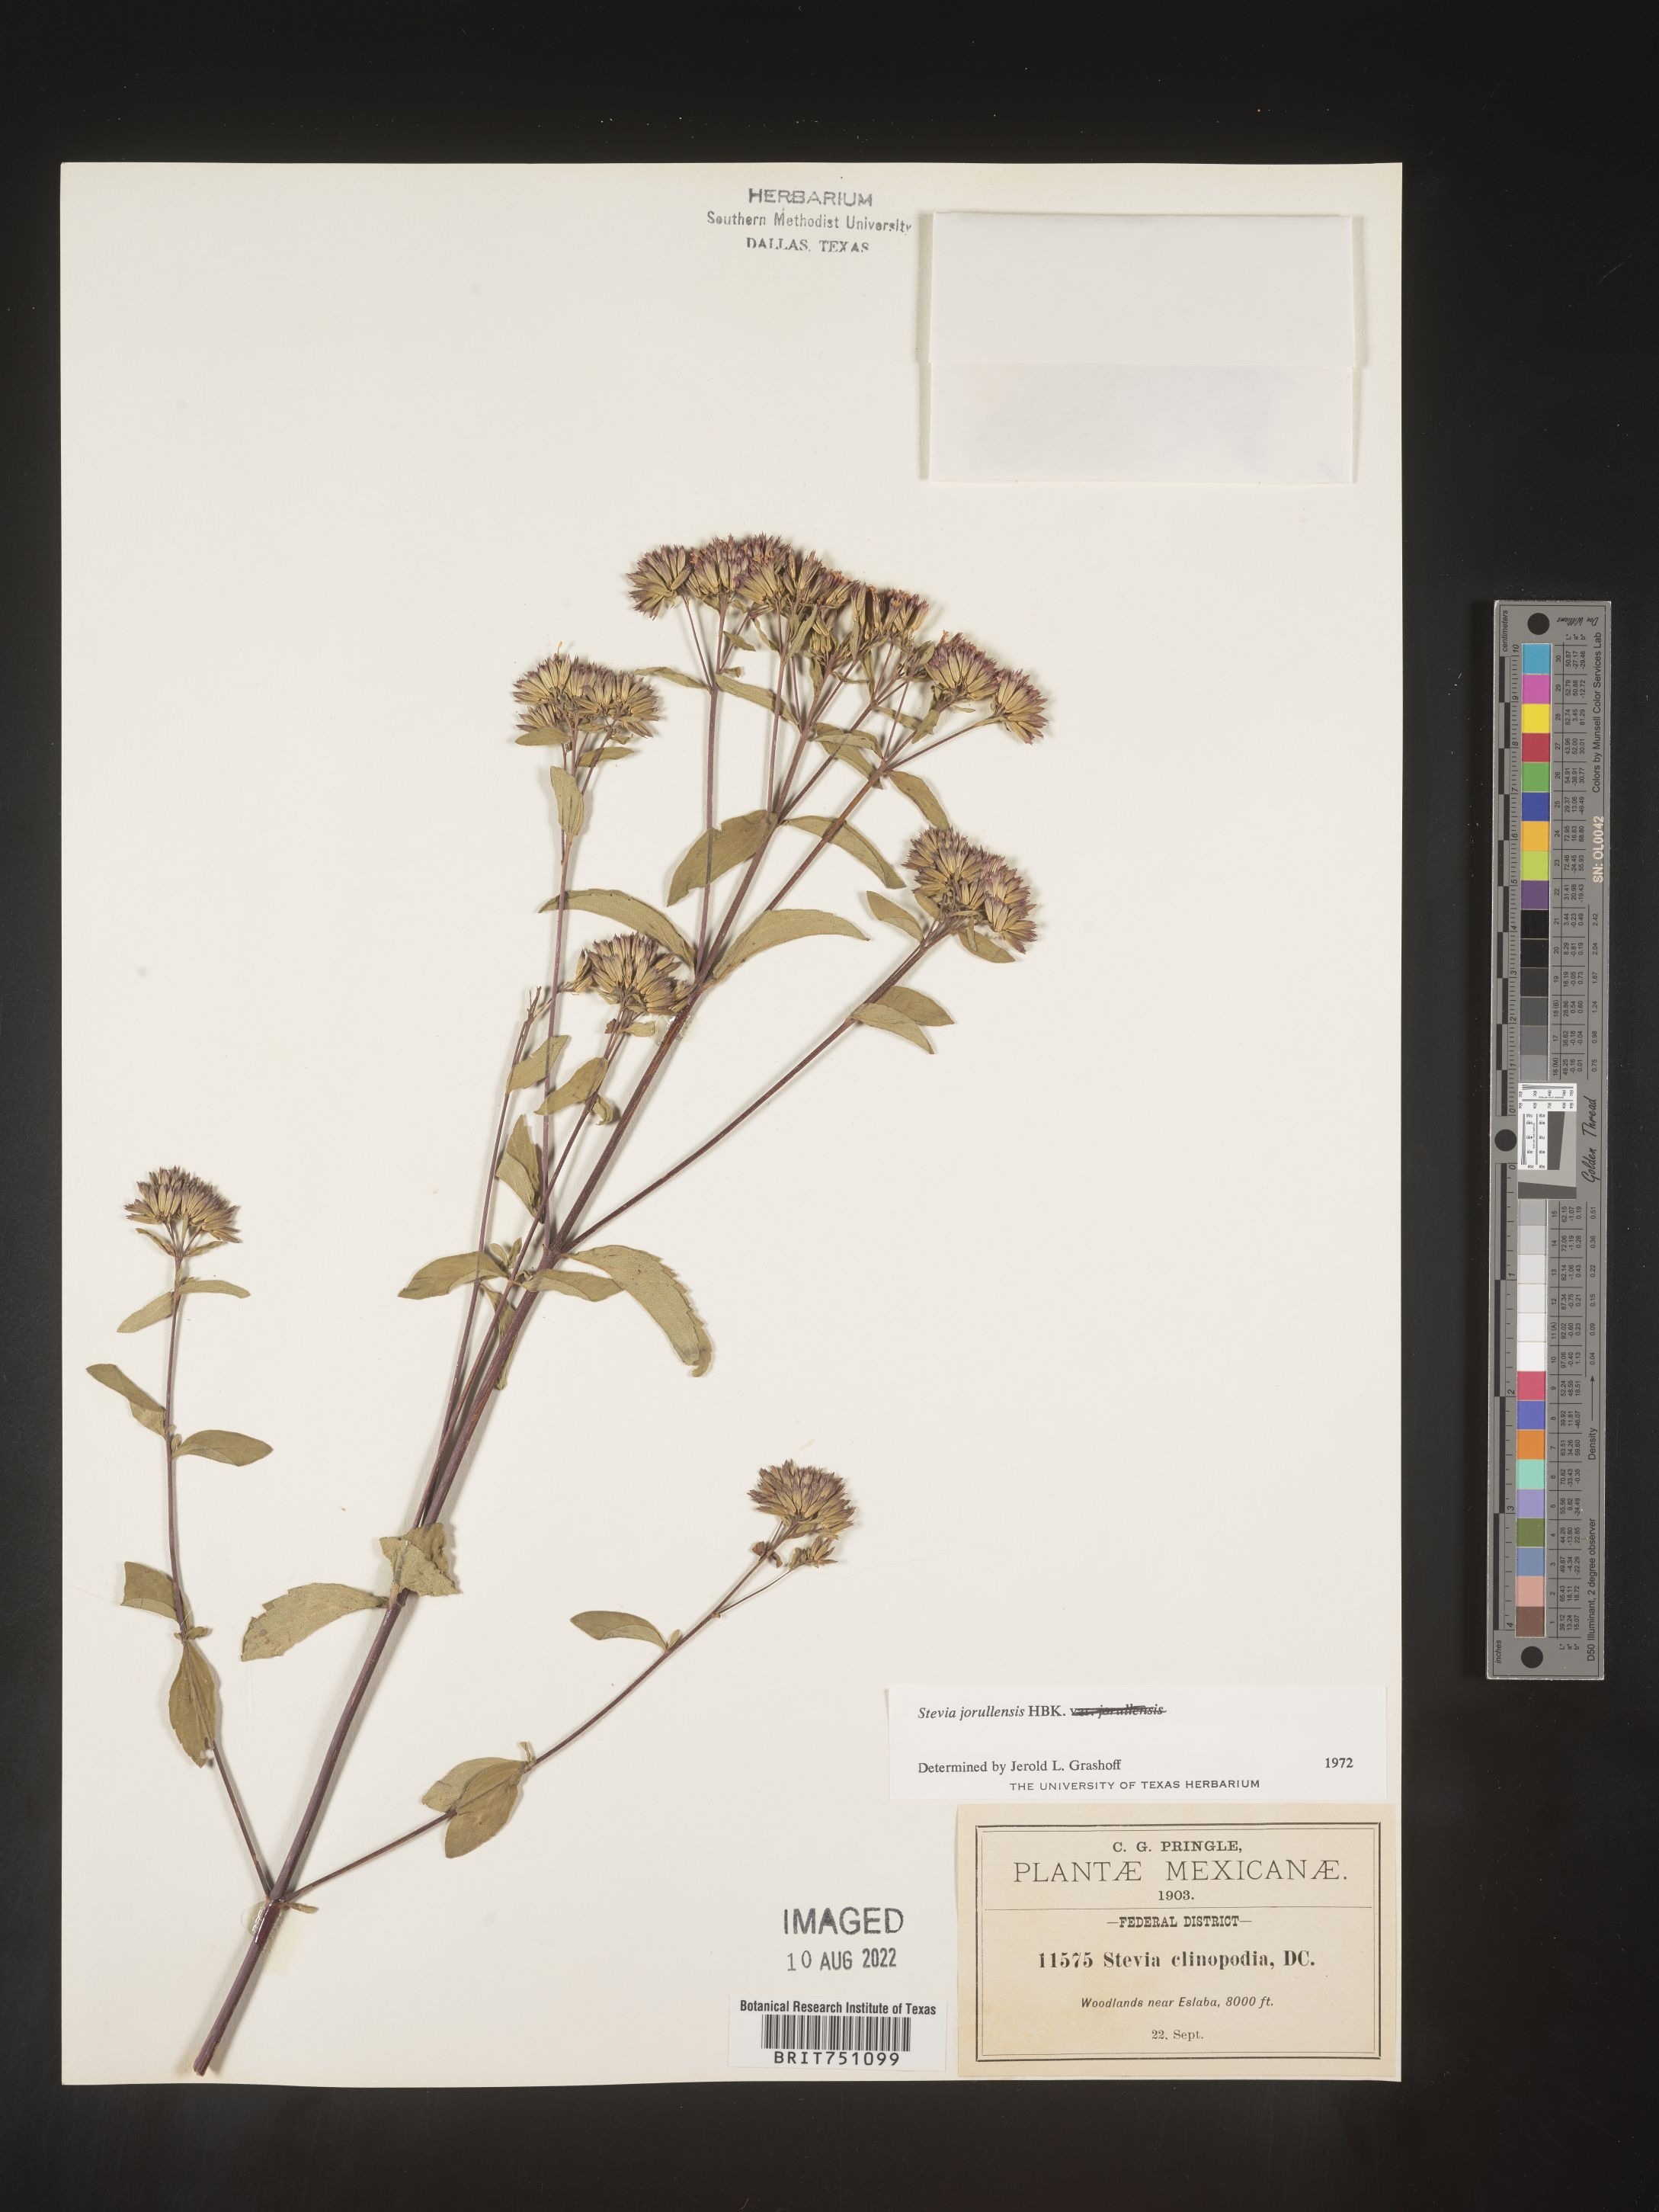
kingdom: Plantae
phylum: Tracheophyta
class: Magnoliopsida
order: Asterales
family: Asteraceae
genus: Stevia
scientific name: Stevia jorullensis
